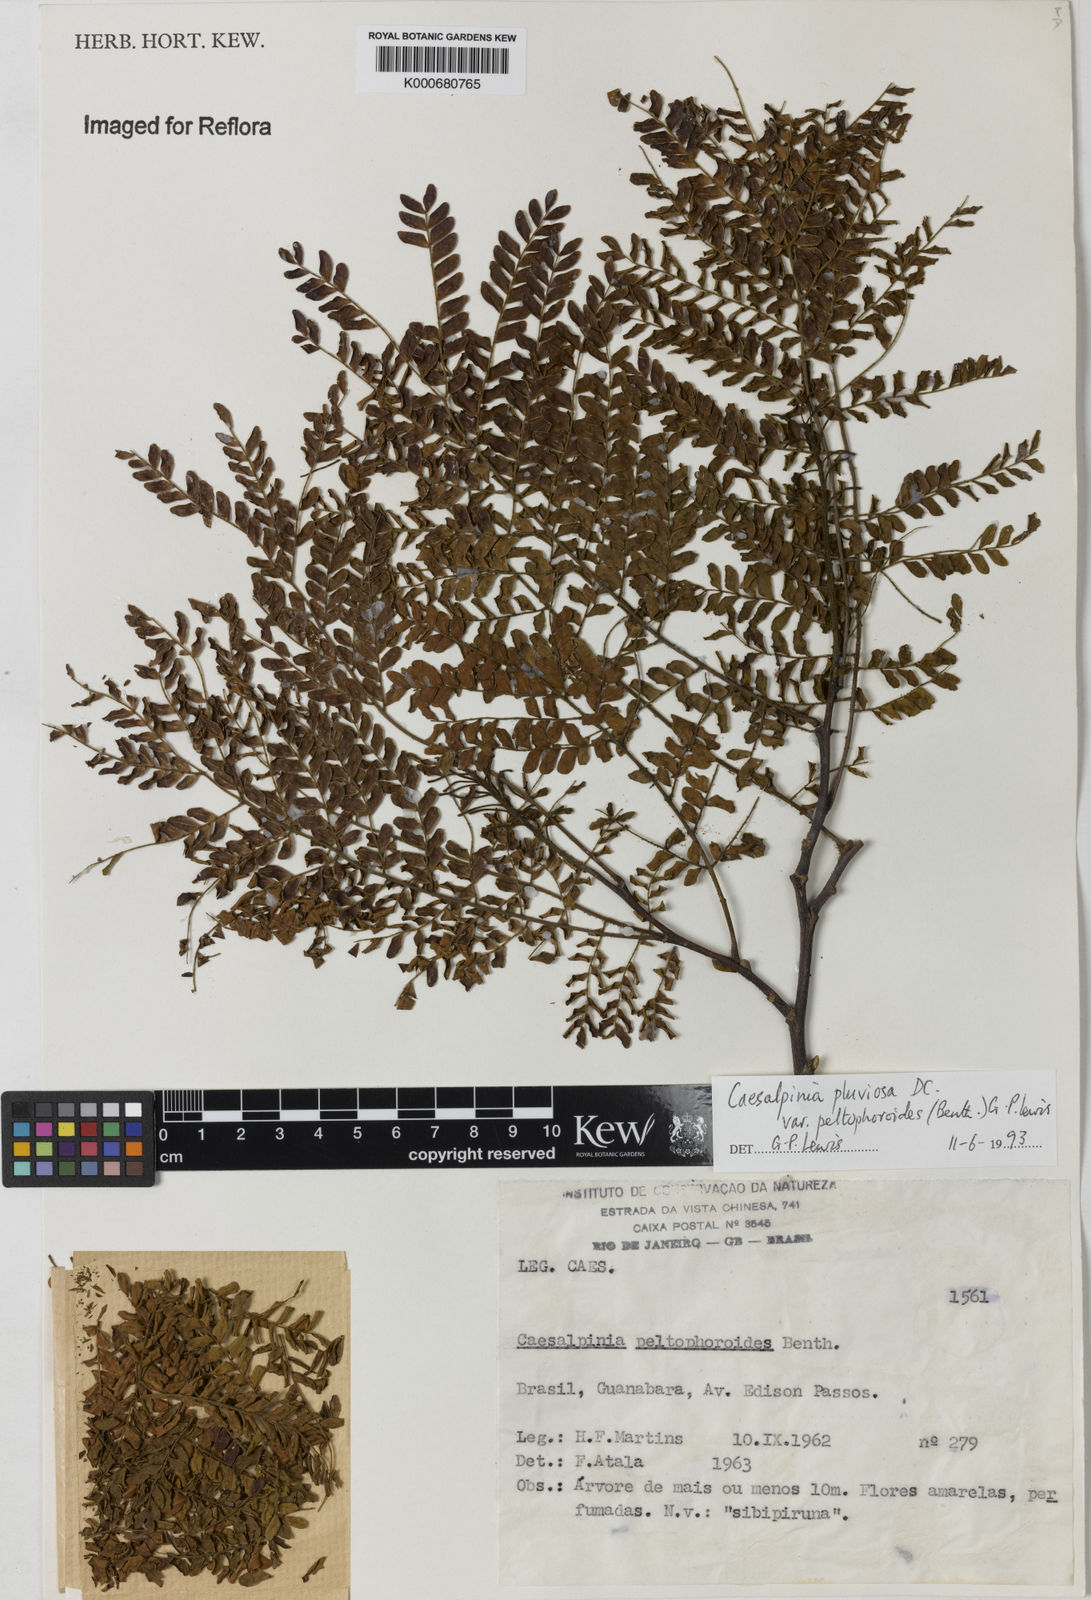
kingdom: Plantae
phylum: Tracheophyta
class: Magnoliopsida
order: Fabales
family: Fabaceae
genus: Cenostigma
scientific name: Cenostigma pluviosum
